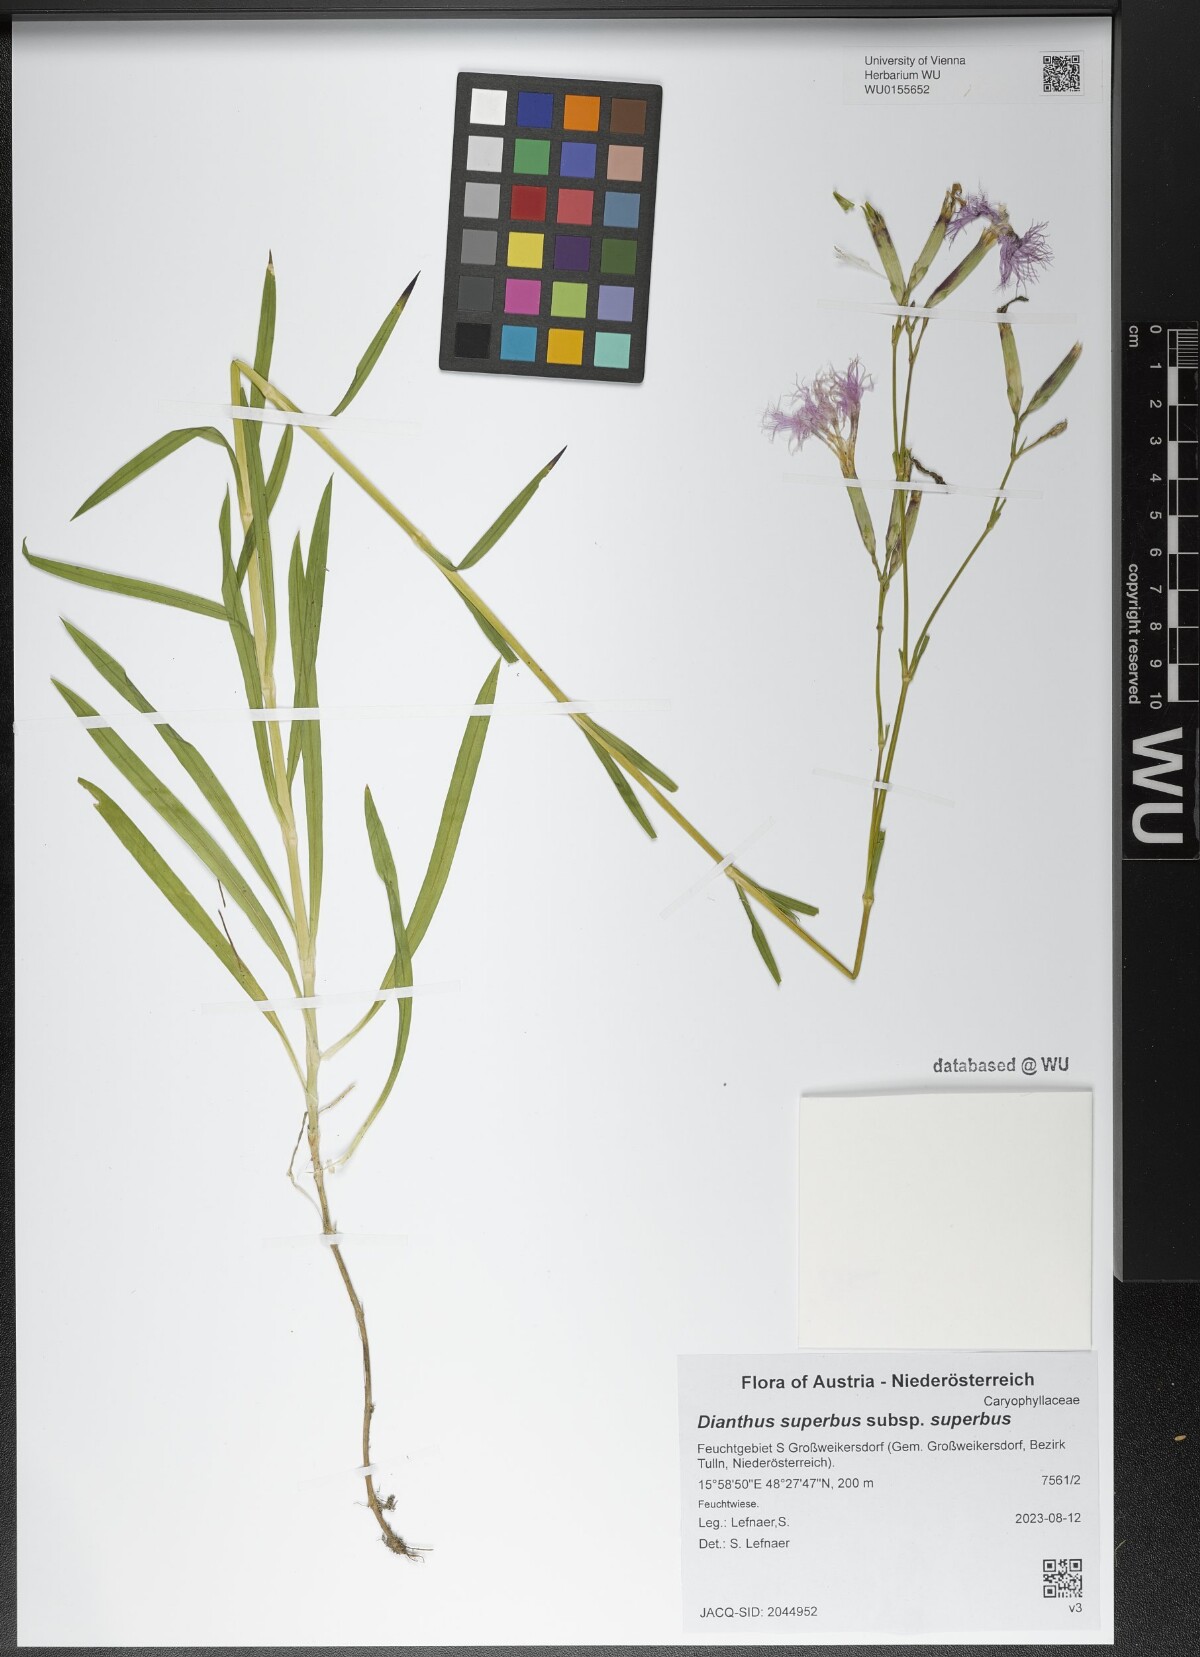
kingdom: Plantae
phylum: Tracheophyta
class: Magnoliopsida
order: Caryophyllales
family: Caryophyllaceae
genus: Dianthus
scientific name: Dianthus superbus
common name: Fringed pink
